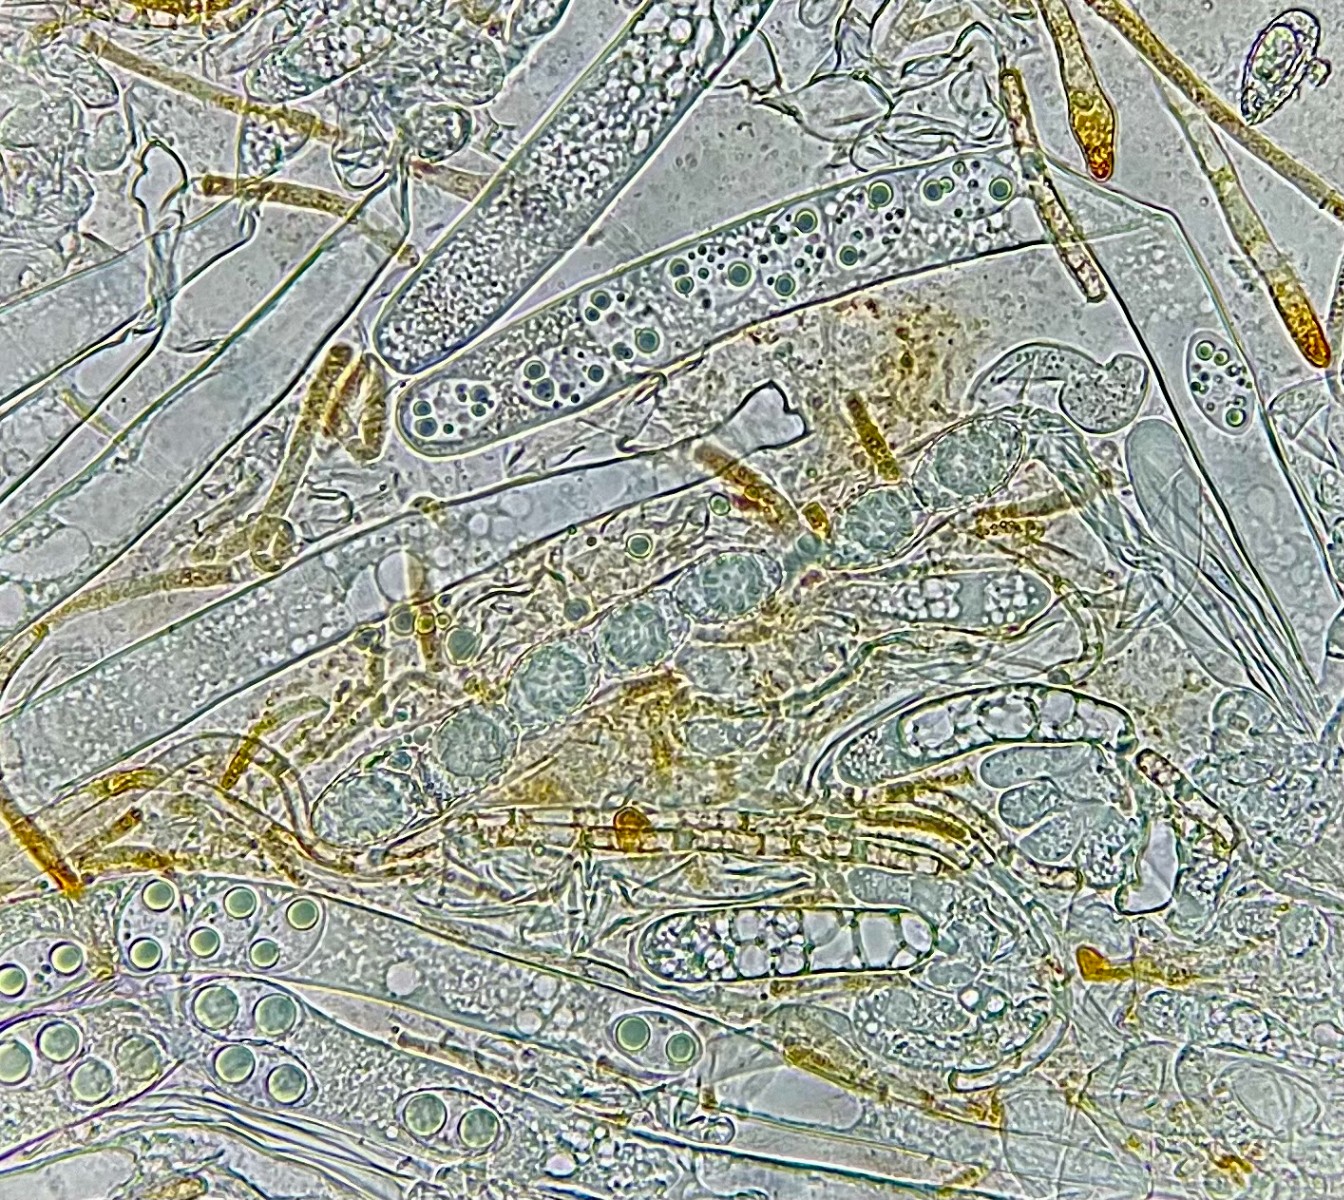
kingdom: Fungi
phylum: Ascomycota
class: Pezizomycetes
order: Pezizales
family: Pyronemataceae
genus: Neottiella
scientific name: Neottiella rutilans
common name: jomfruhår-mosbæger
